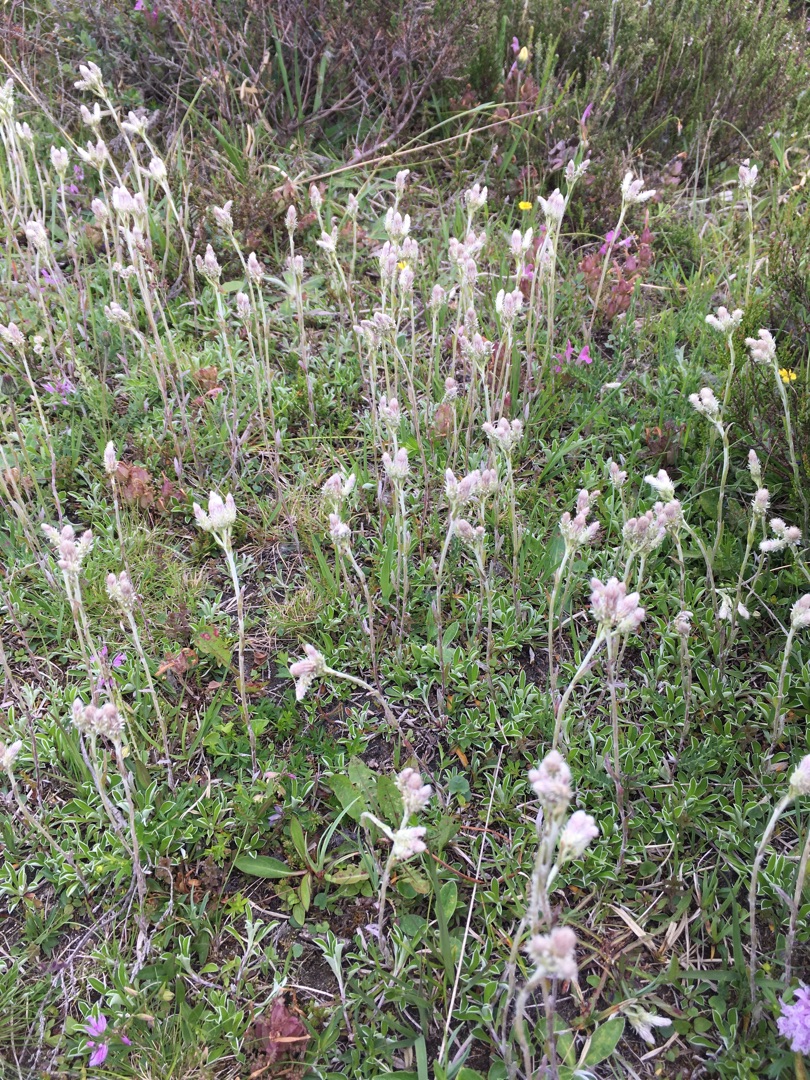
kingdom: Plantae
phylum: Tracheophyta
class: Magnoliopsida
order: Asterales
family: Asteraceae
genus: Antennaria
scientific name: Antennaria dioica
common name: Kattefod
